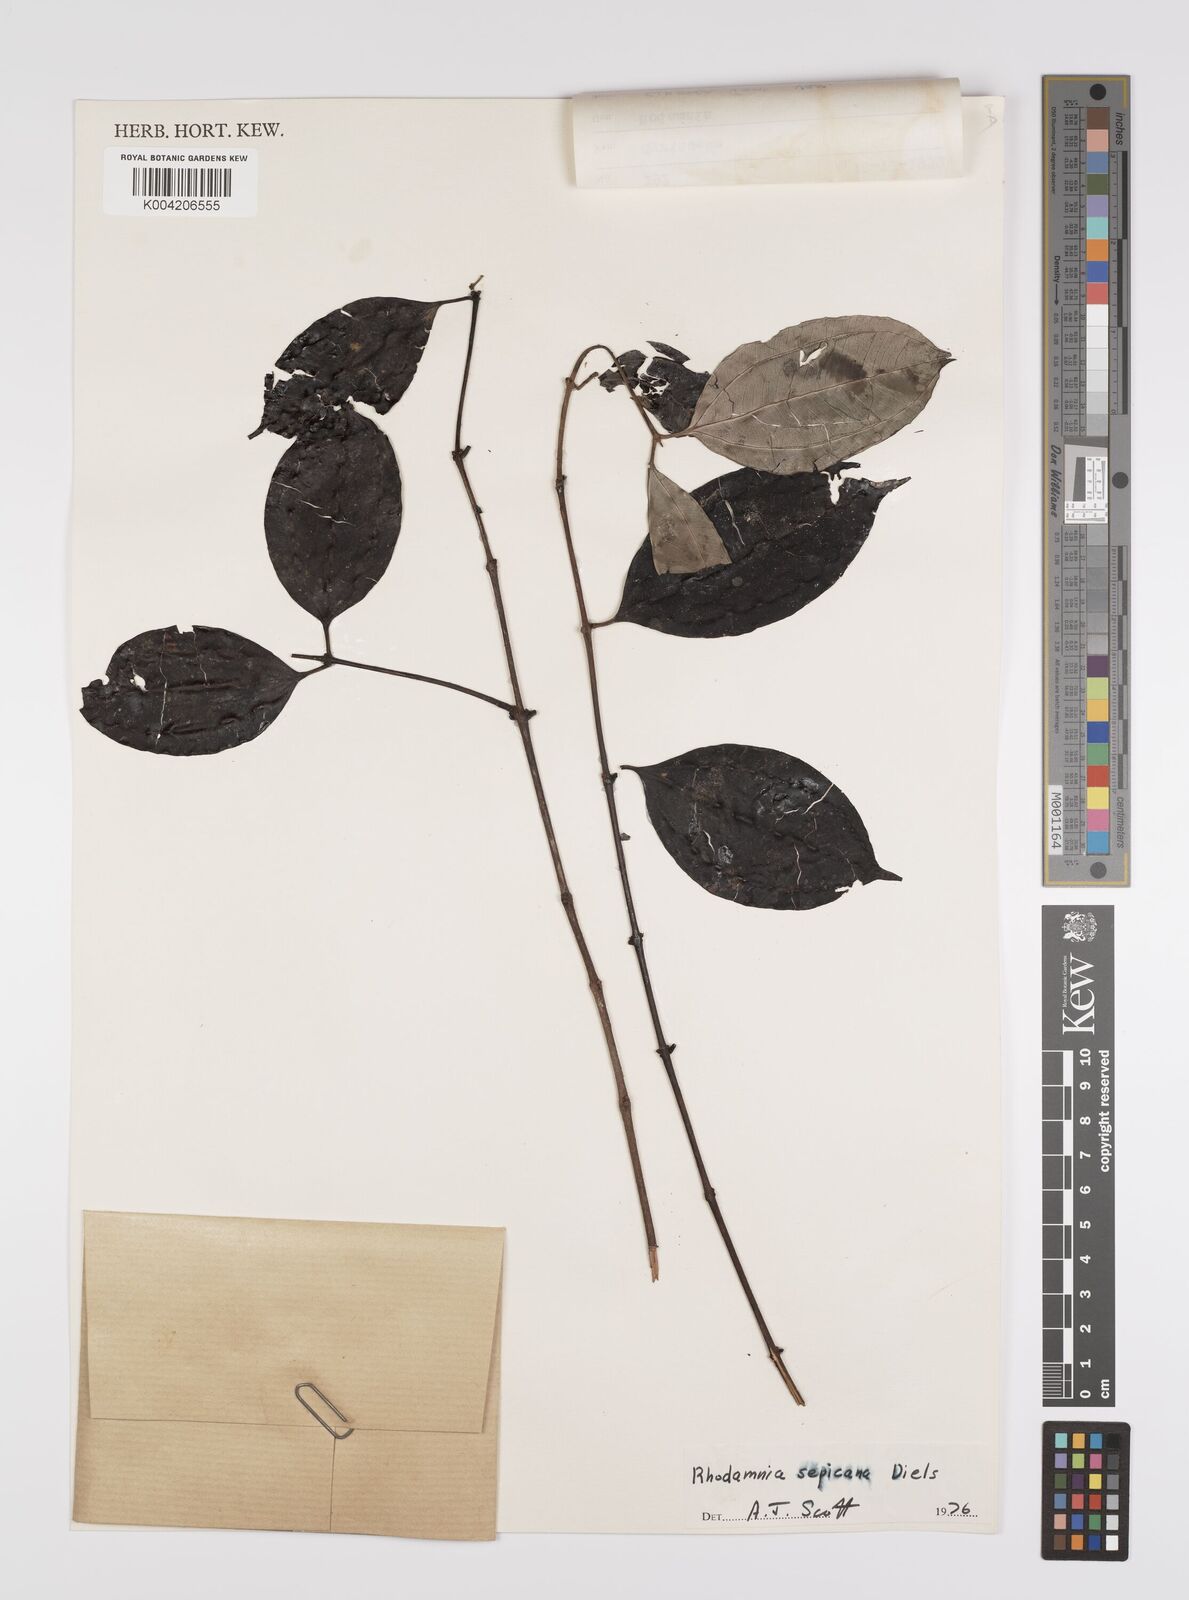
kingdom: Plantae
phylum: Tracheophyta
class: Magnoliopsida
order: Myrtales
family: Myrtaceae
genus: Rhodamnia
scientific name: Rhodamnia sepicana
